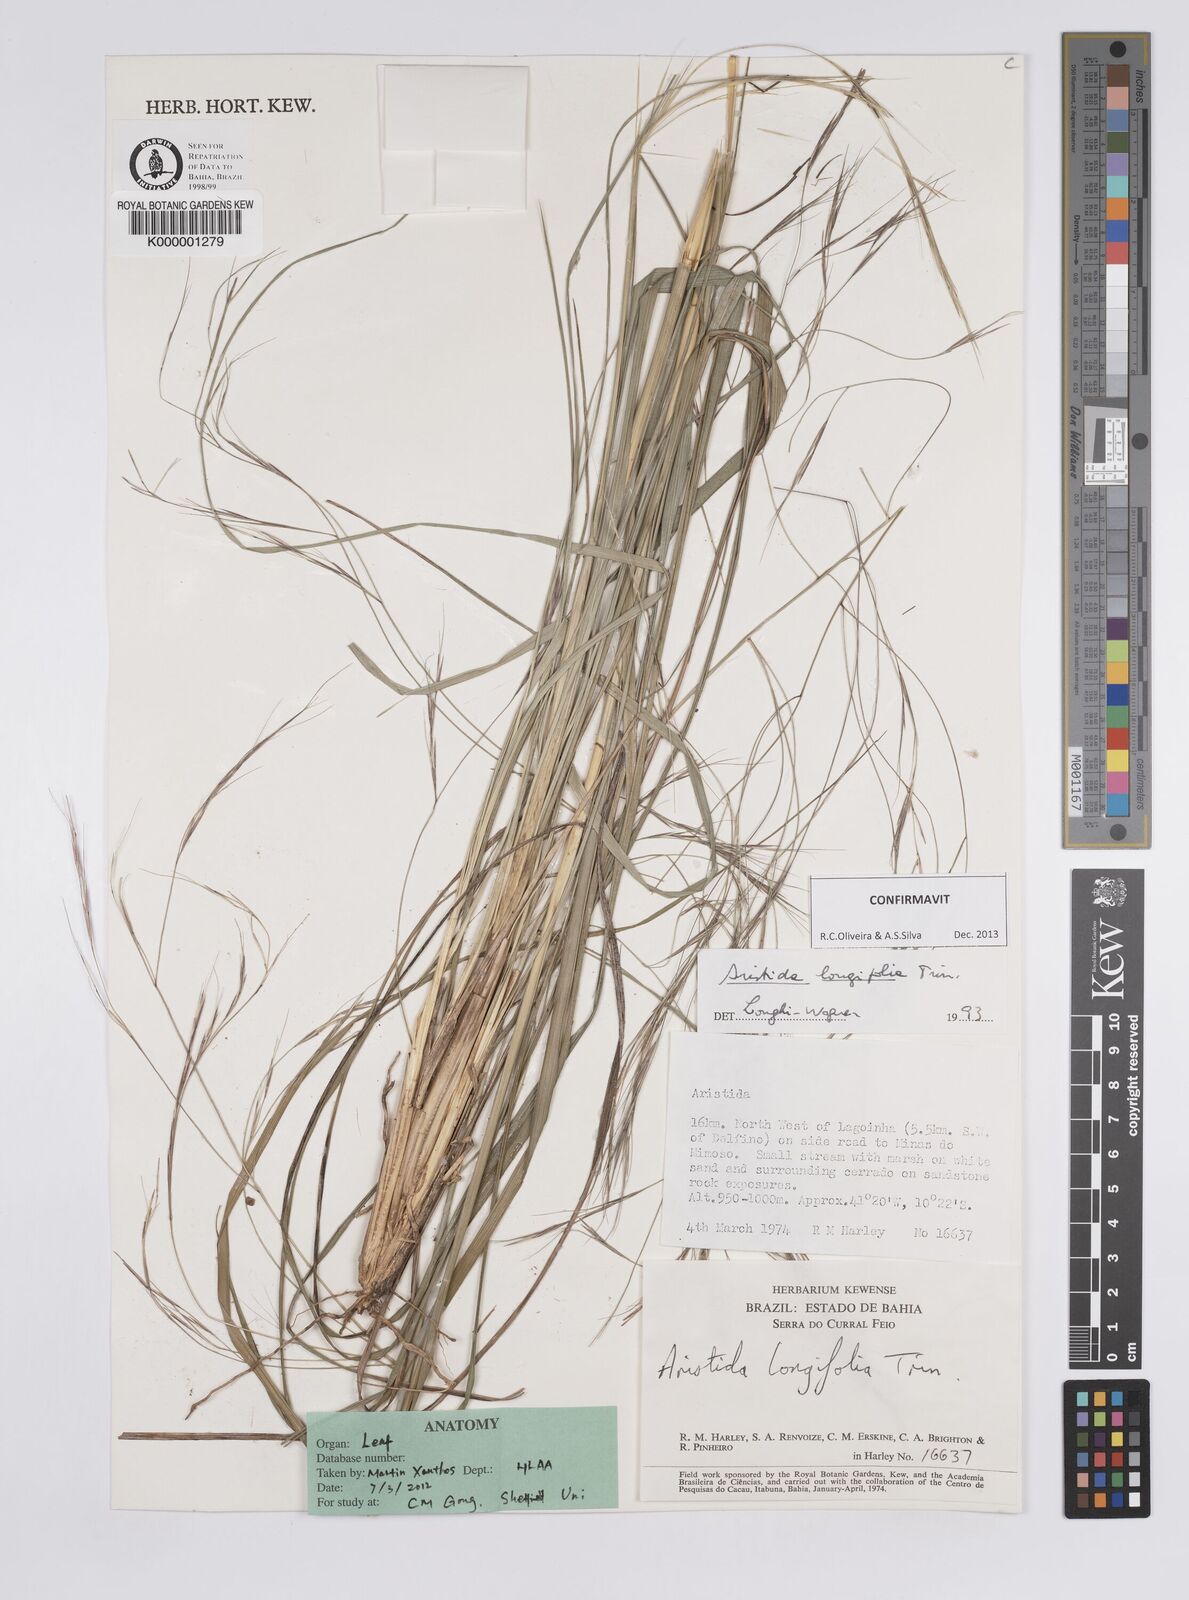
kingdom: Plantae
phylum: Tracheophyta
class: Liliopsida
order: Poales
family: Poaceae
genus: Aristida
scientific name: Aristida longifolia
